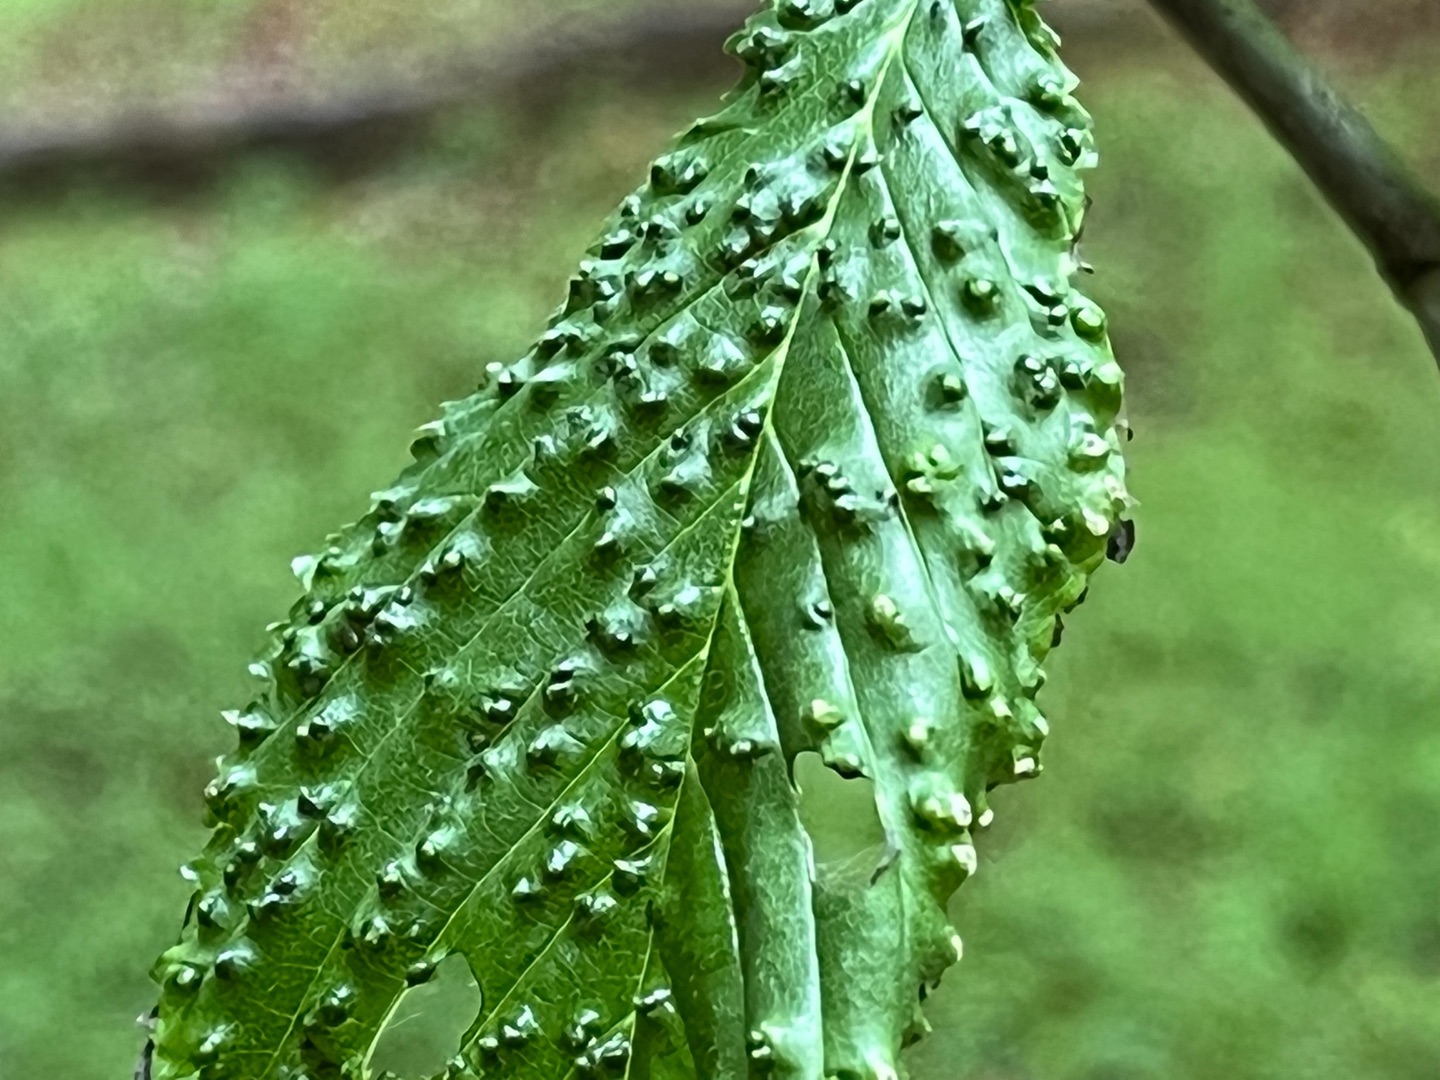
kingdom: Animalia
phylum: Arthropoda
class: Arachnida
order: Trombidiformes
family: Eriophyidae
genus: Aceria
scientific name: Aceria brevipunctata
